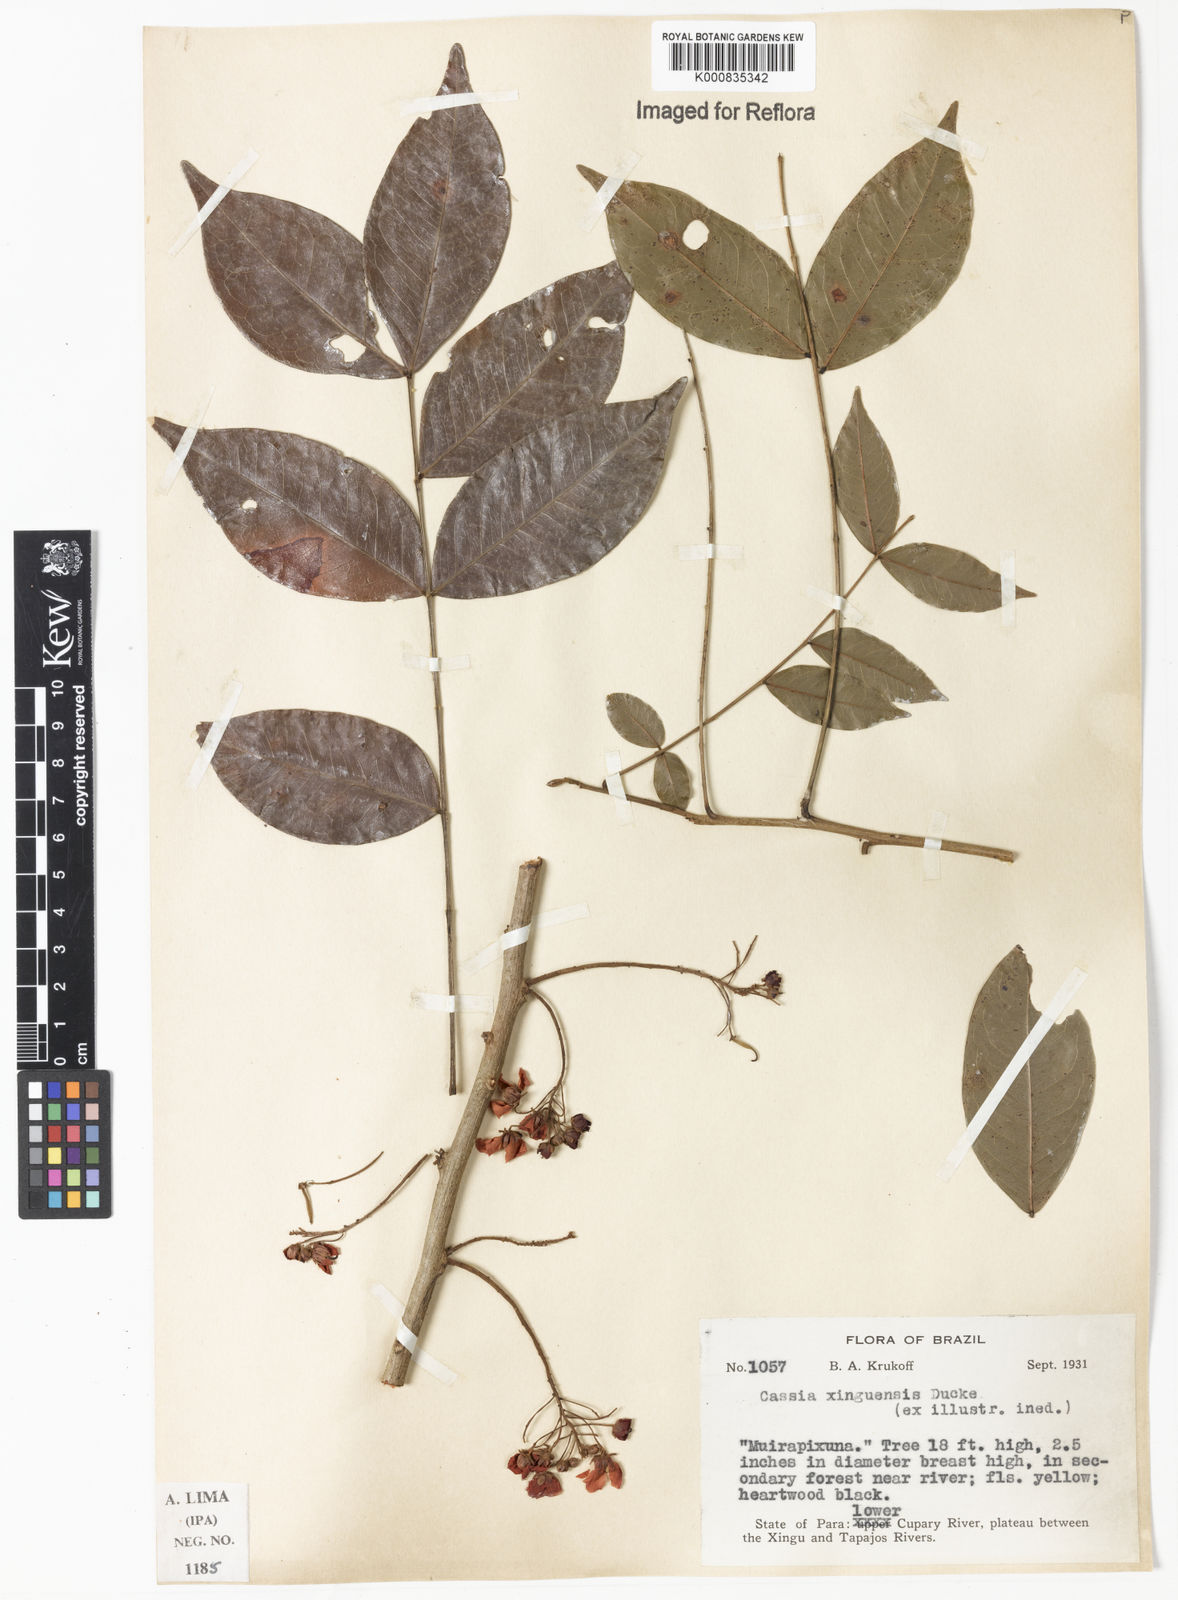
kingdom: Plantae
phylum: Tracheophyta
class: Magnoliopsida
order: Fabales
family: Fabaceae
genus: Chamaecrista
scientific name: Chamaecrista xinguensis
